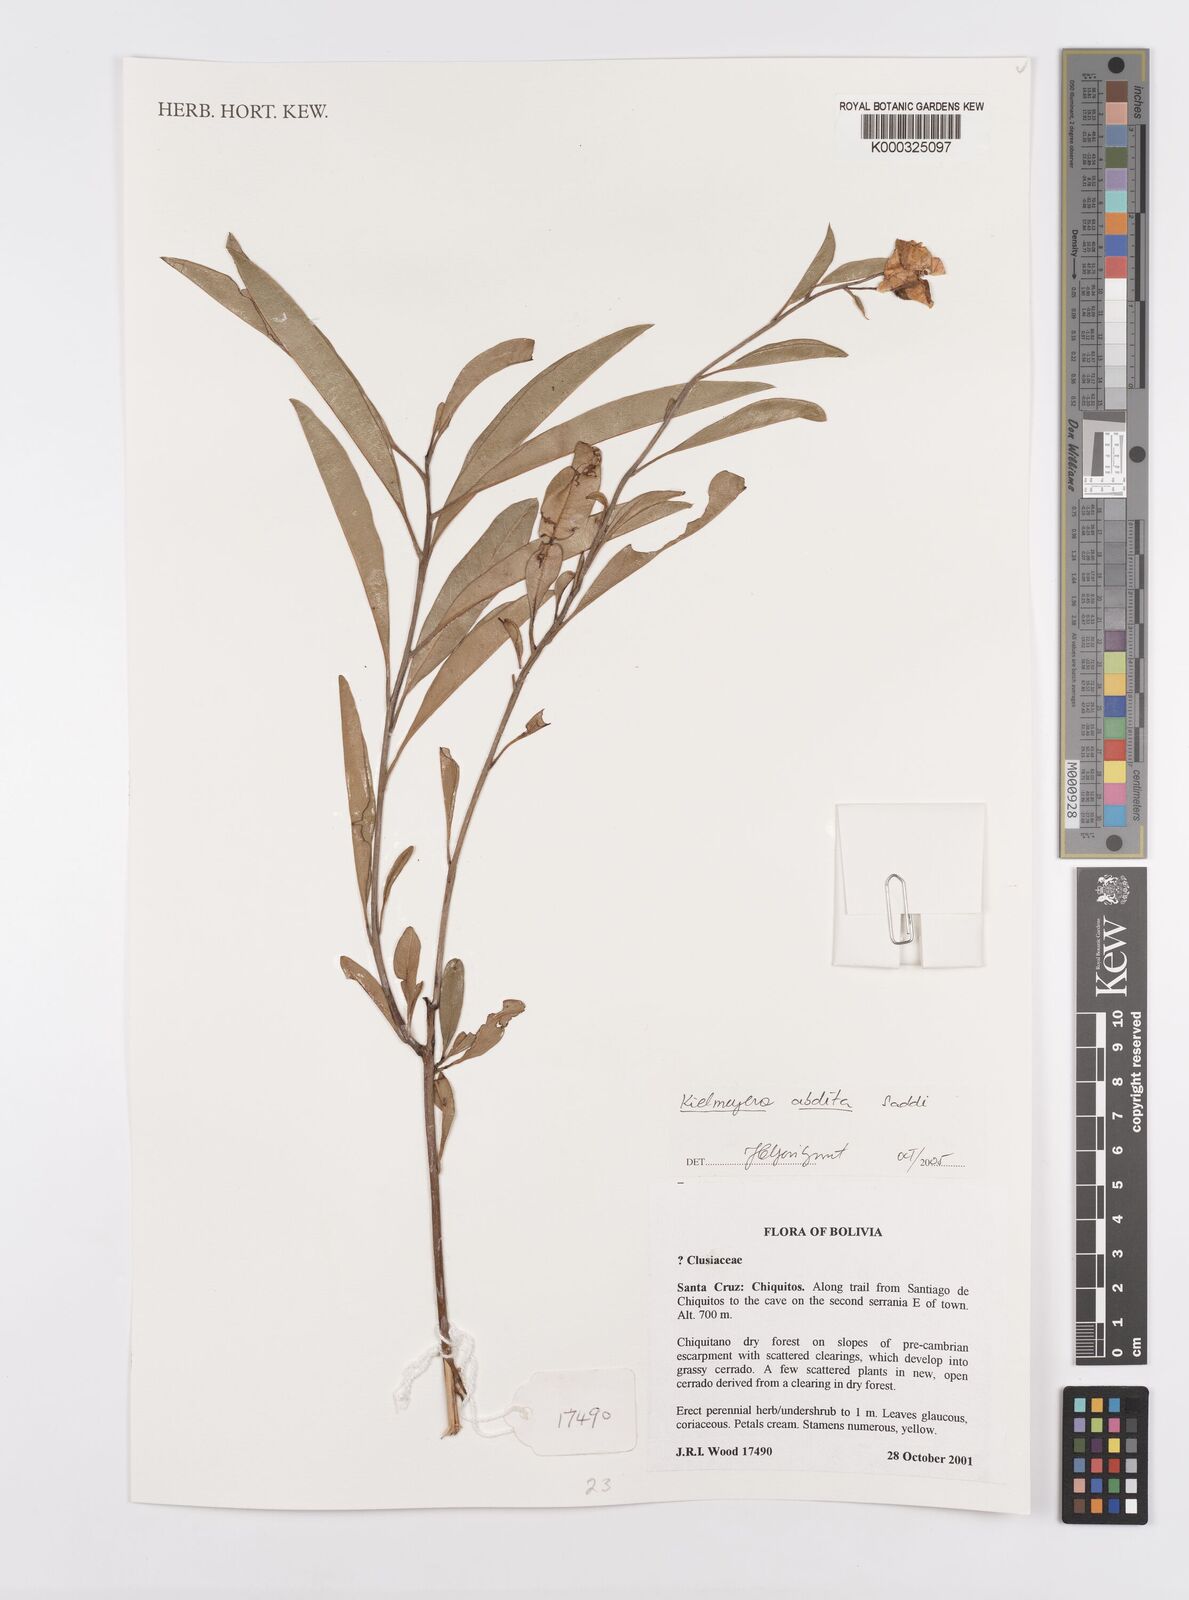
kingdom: Plantae
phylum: Tracheophyta
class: Magnoliopsida
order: Malpighiales
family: Calophyllaceae
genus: Kielmeyera
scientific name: Kielmeyera abdita
